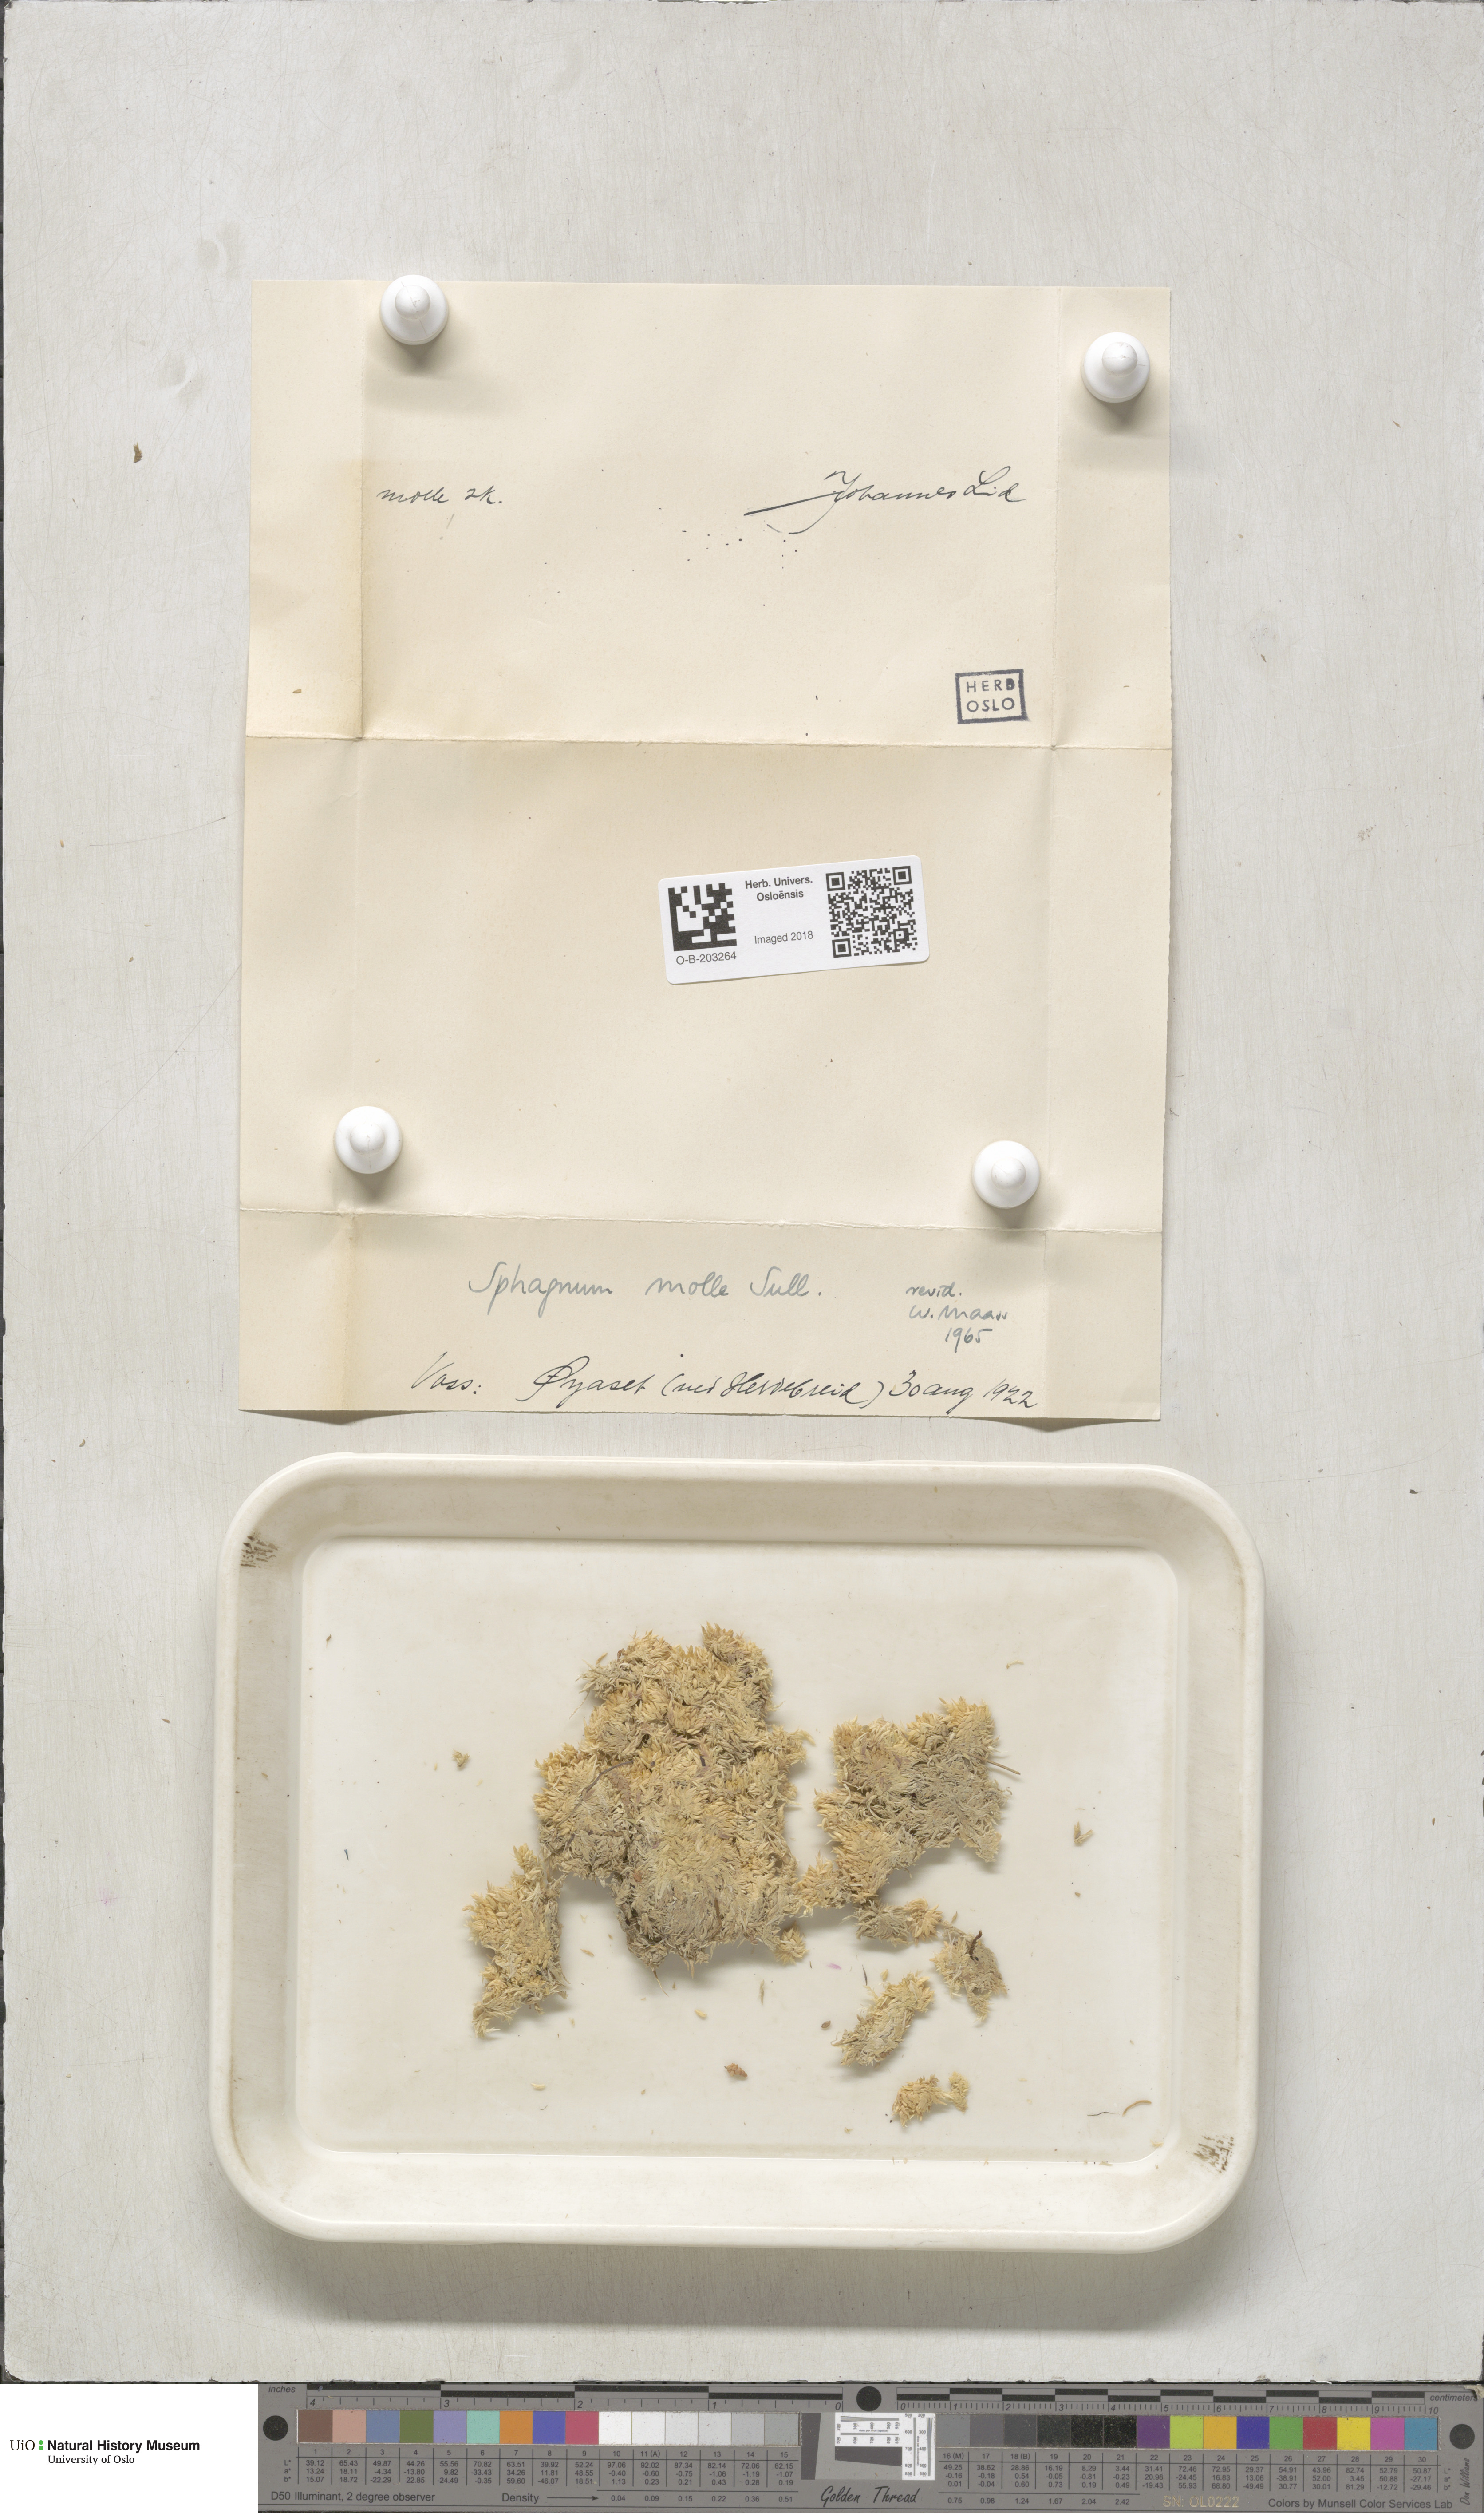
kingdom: Plantae
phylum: Bryophyta
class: Sphagnopsida
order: Sphagnales
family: Sphagnaceae
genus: Sphagnum
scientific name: Sphagnum molle
